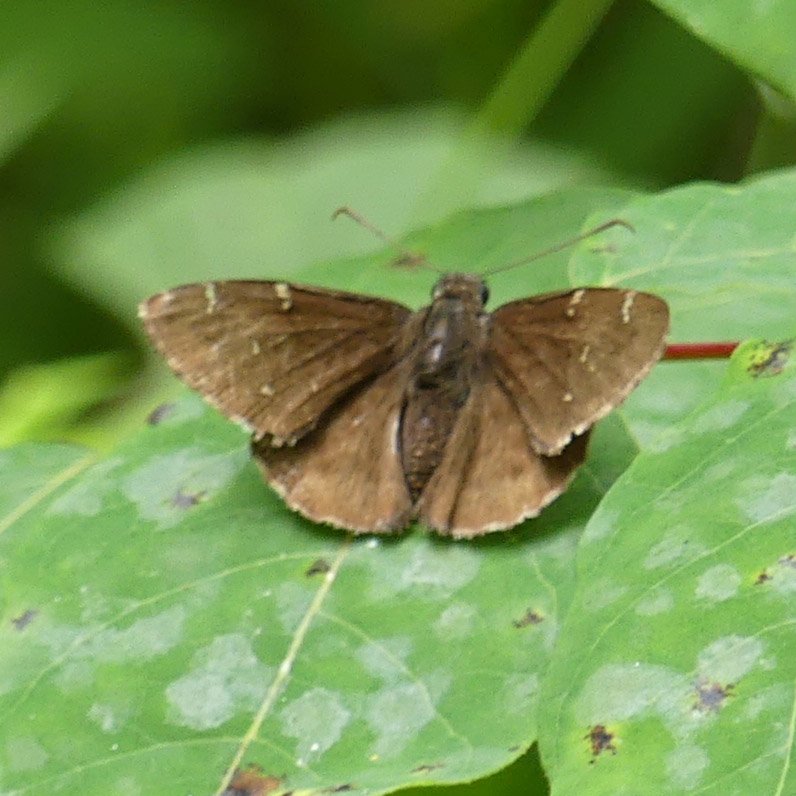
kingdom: Animalia
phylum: Arthropoda
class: Insecta
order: Lepidoptera
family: Hesperiidae
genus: Autochton
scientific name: Autochton
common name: Northern Cloudywing
